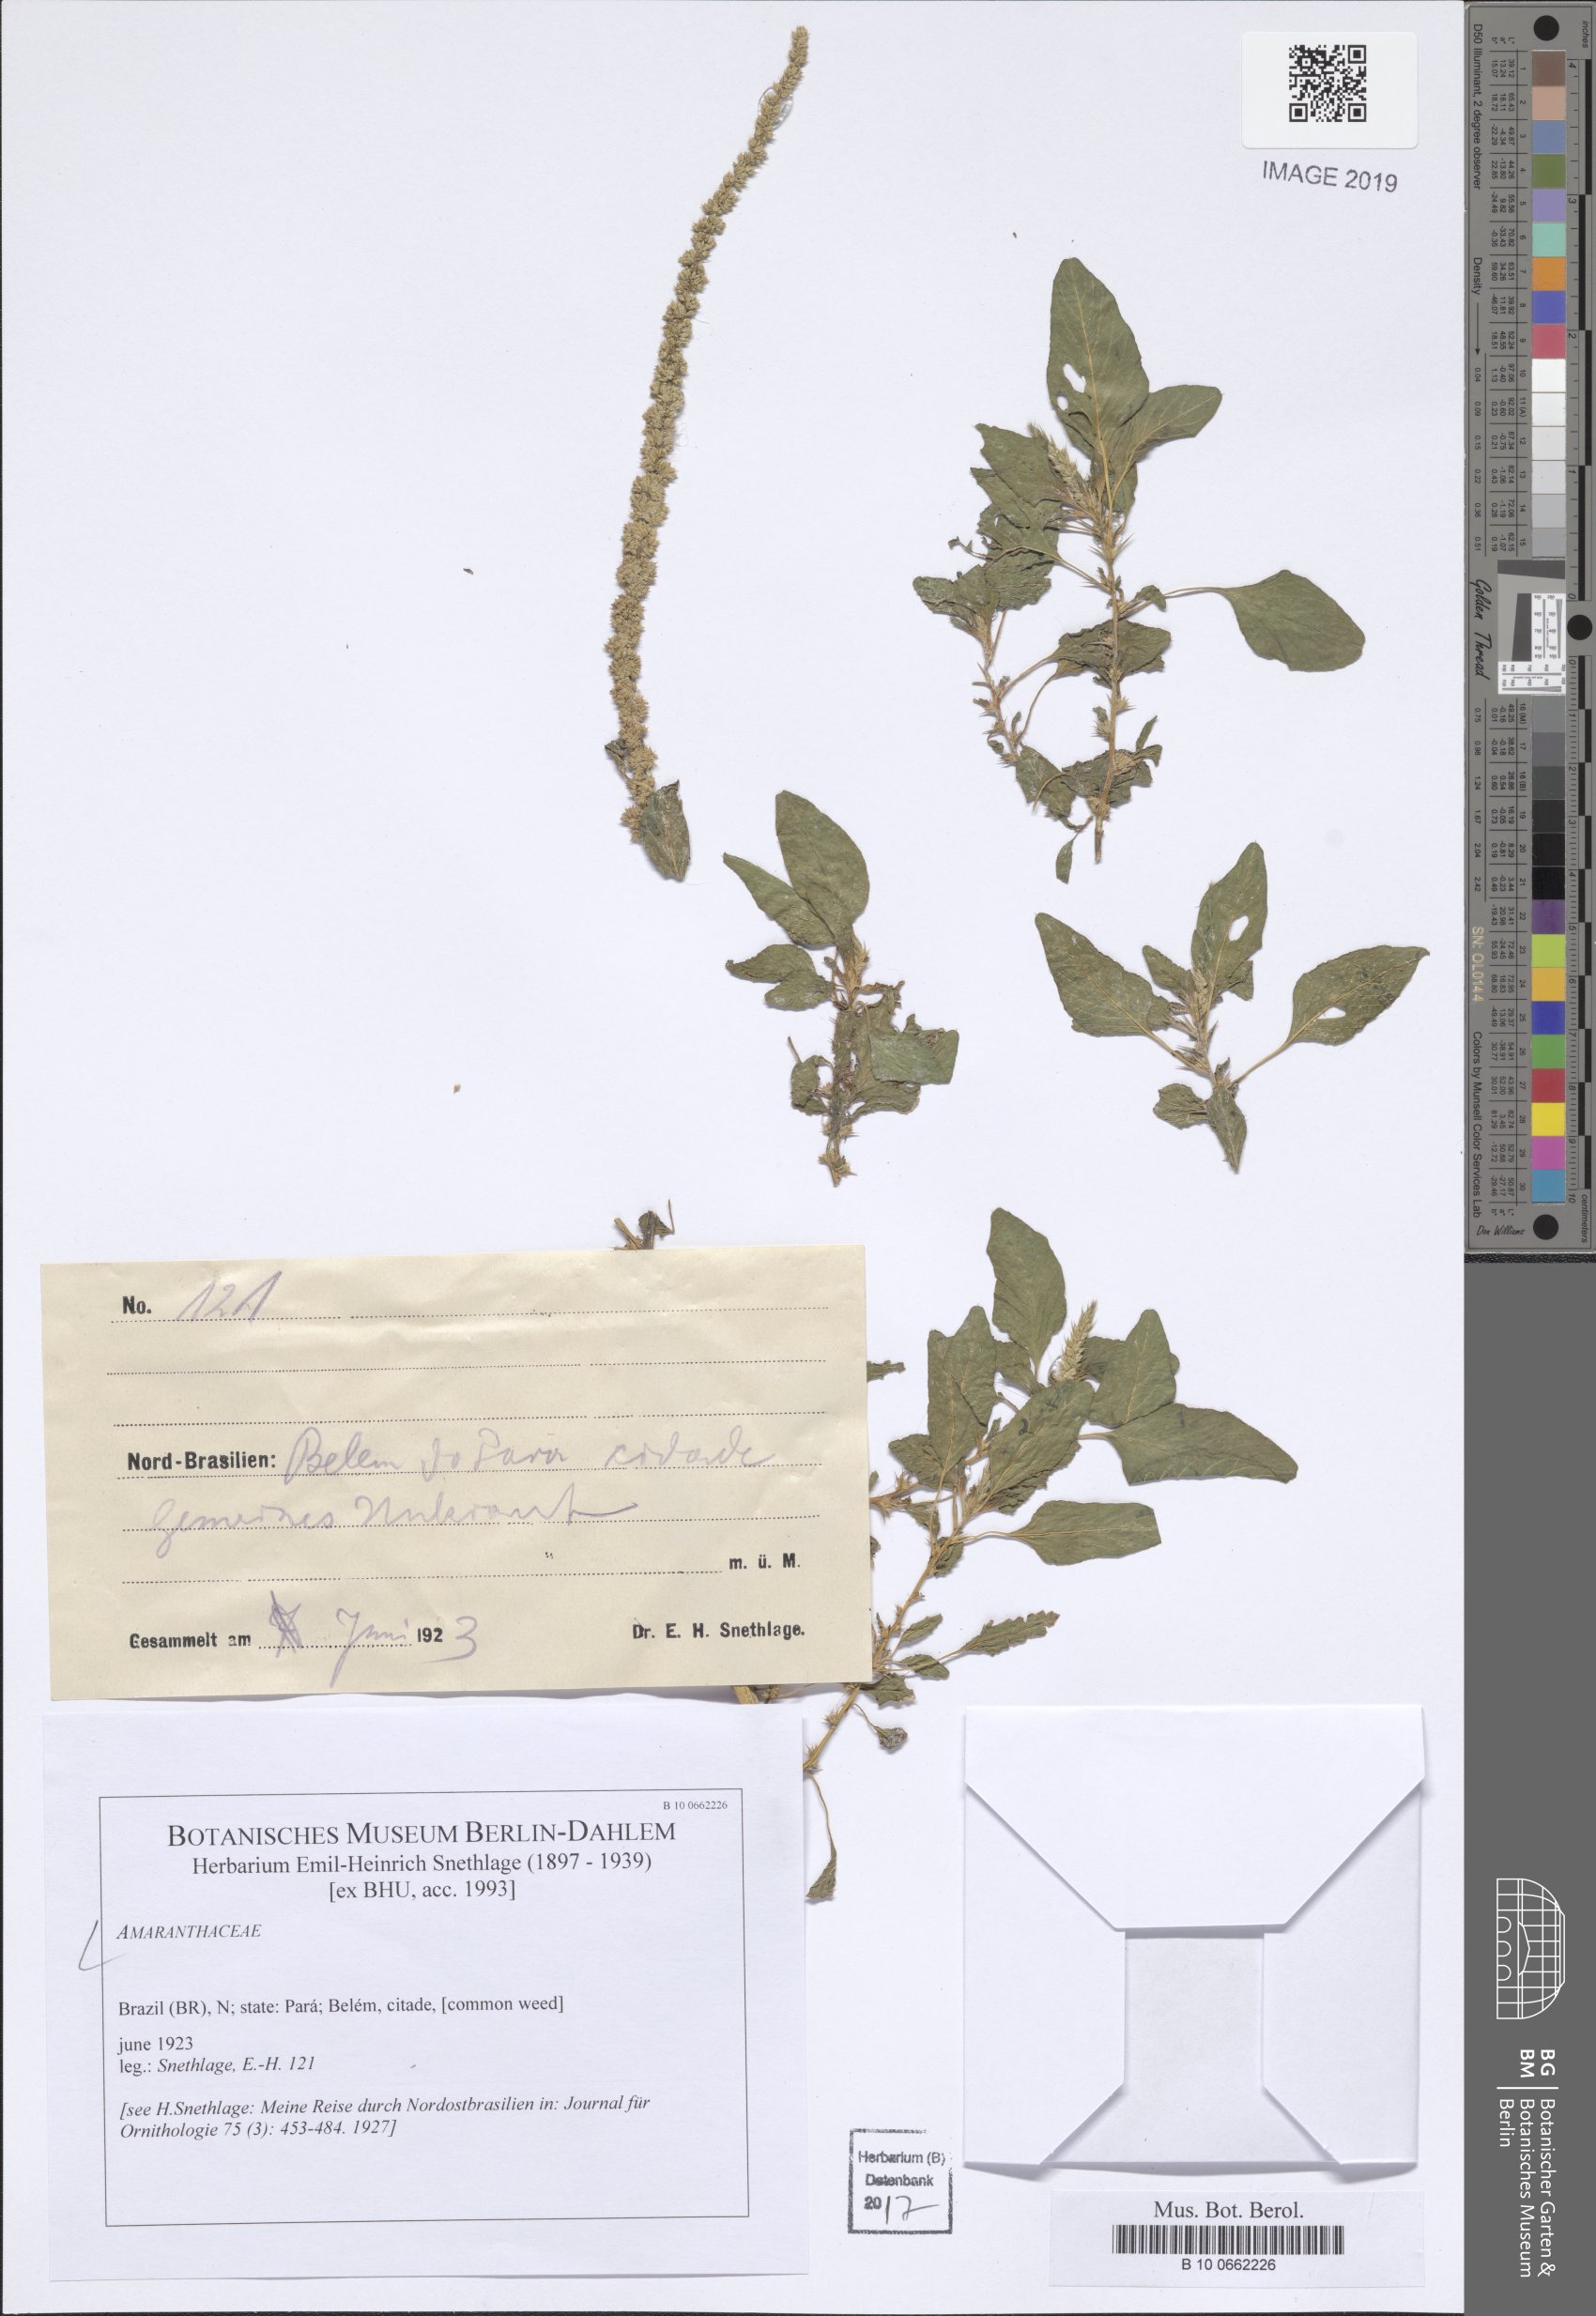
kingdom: Plantae
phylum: Tracheophyta
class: Magnoliopsida
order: Caryophyllales
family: Amaranthaceae
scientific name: Amaranthaceae
